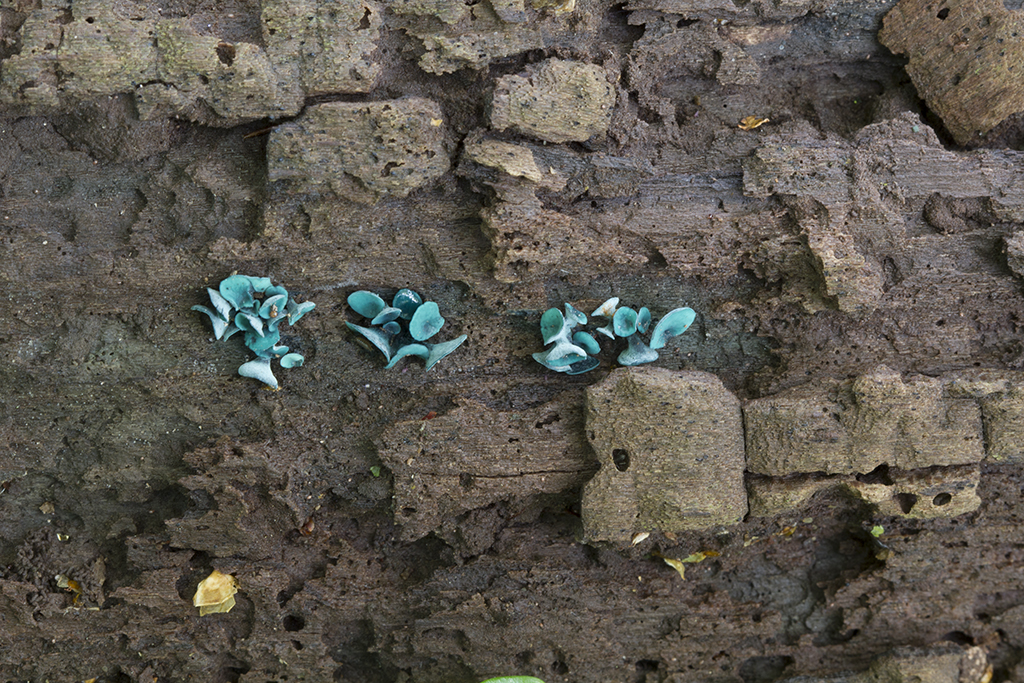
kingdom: Fungi
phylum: Ascomycota
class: Leotiomycetes
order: Helotiales
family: Chlorociboriaceae
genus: Chlorociboria
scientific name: Chlorociboria aeruginascens
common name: almindelig grønskive
